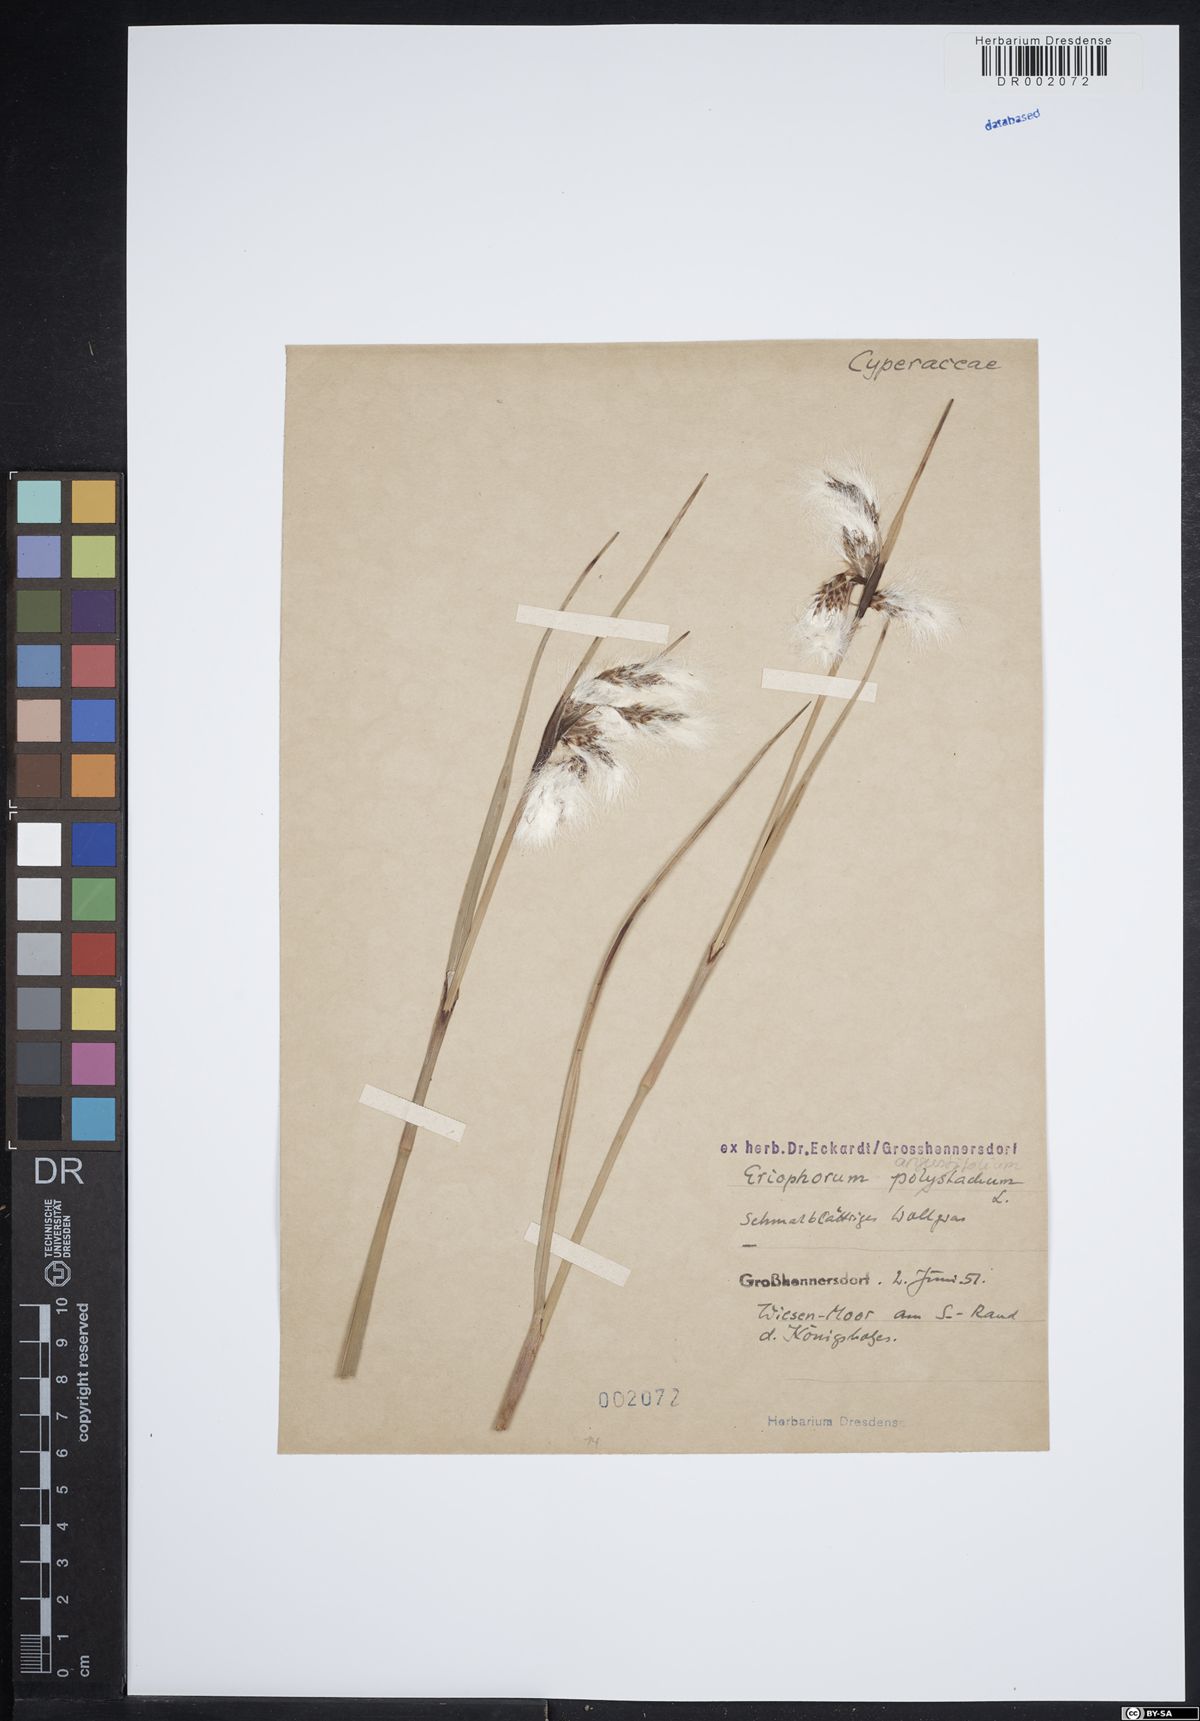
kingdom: Plantae
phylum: Tracheophyta
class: Liliopsida
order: Poales
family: Cyperaceae
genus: Eriophorum
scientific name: Eriophorum angustifolium
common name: Common cottongrass
